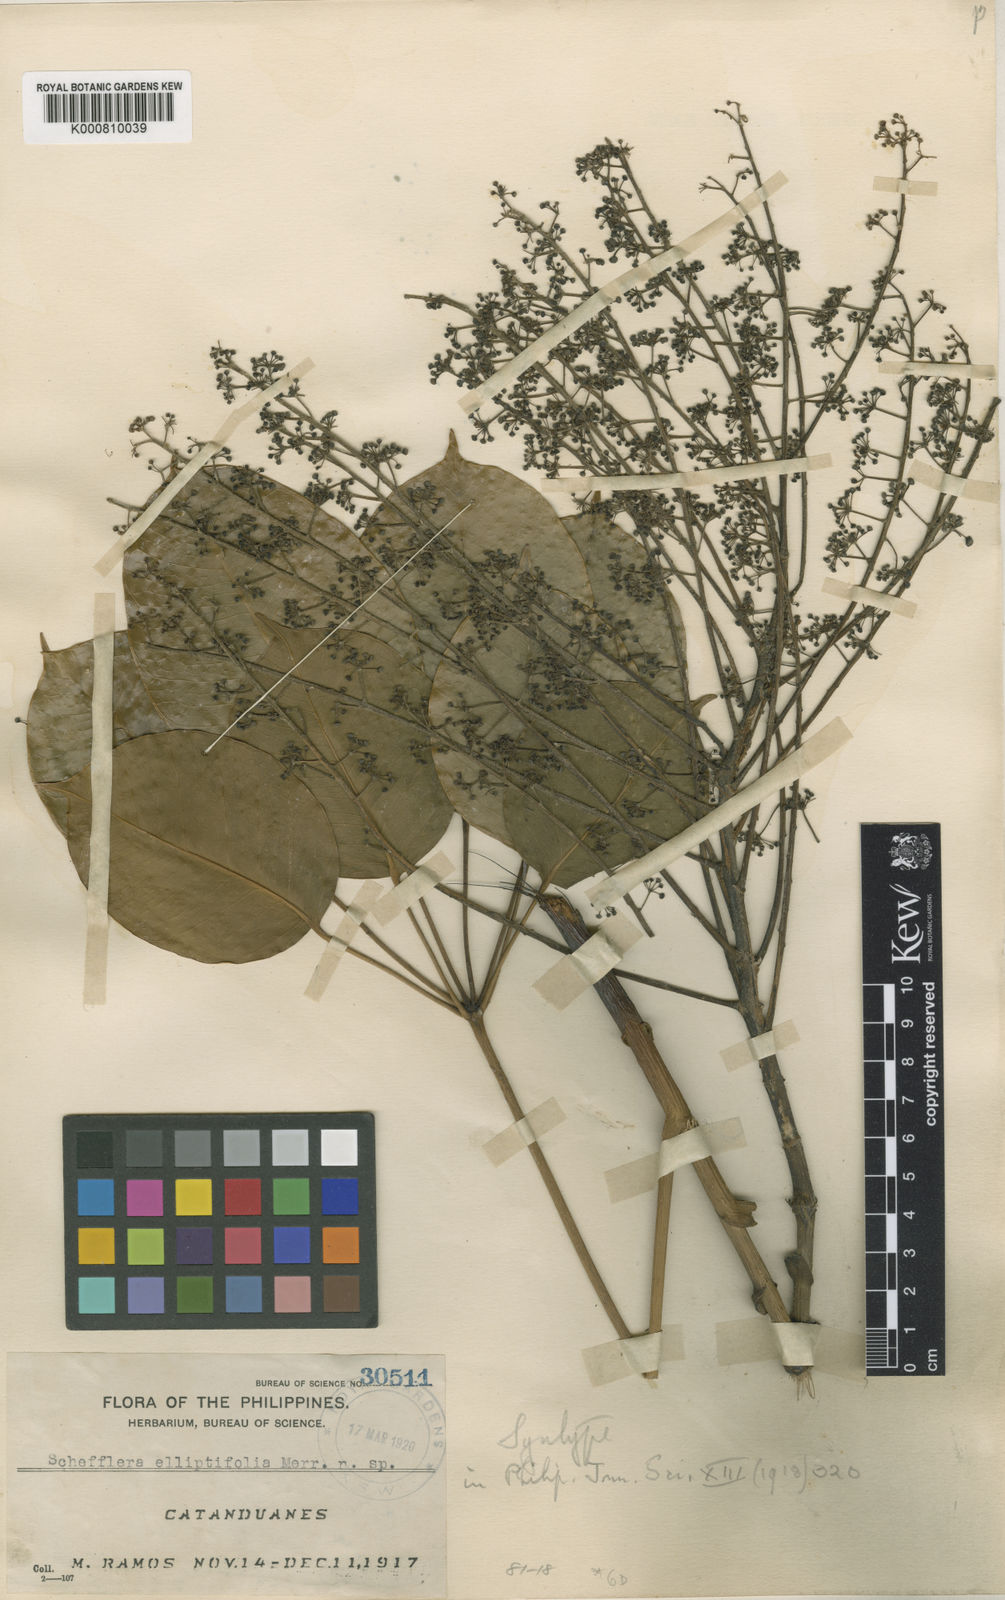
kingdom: Plantae
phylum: Tracheophyta
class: Magnoliopsida
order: Apiales
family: Araliaceae
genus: Heptapleurum
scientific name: Heptapleurum elliptifoliolum
